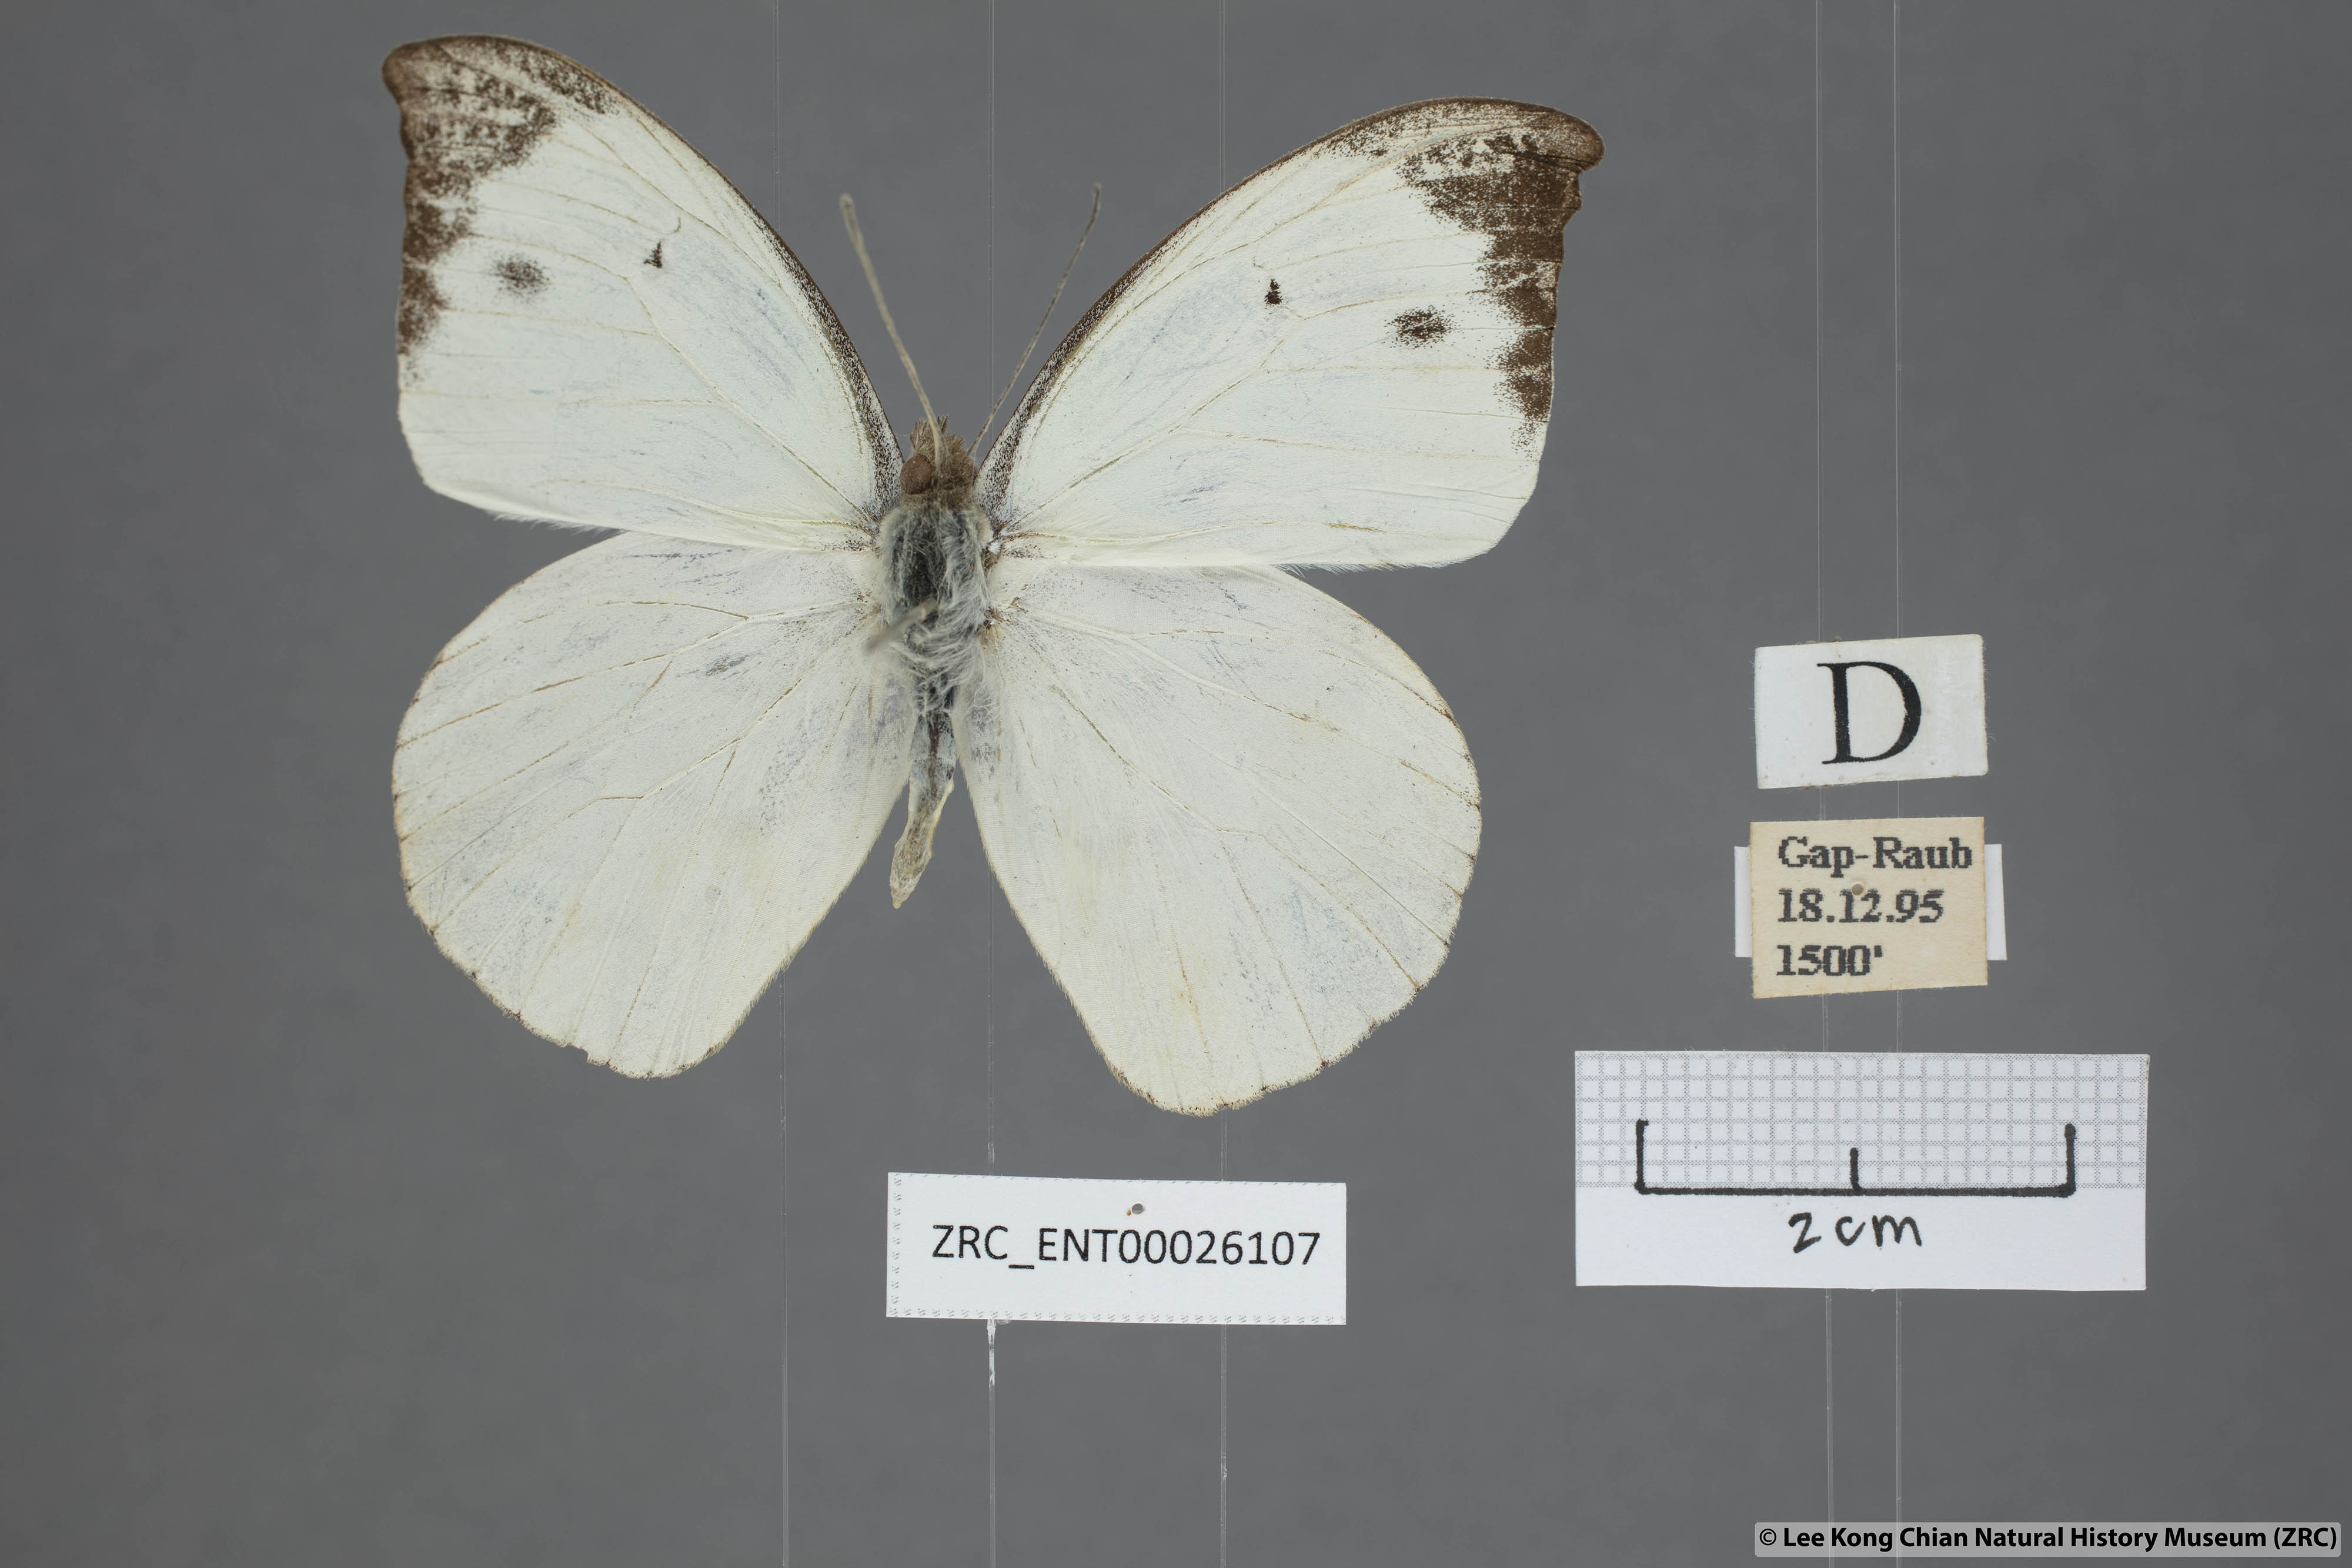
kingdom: Animalia
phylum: Arthropoda
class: Insecta
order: Lepidoptera
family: Pieridae
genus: Appias
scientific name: Appias lalassis
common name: Burmese puffin
